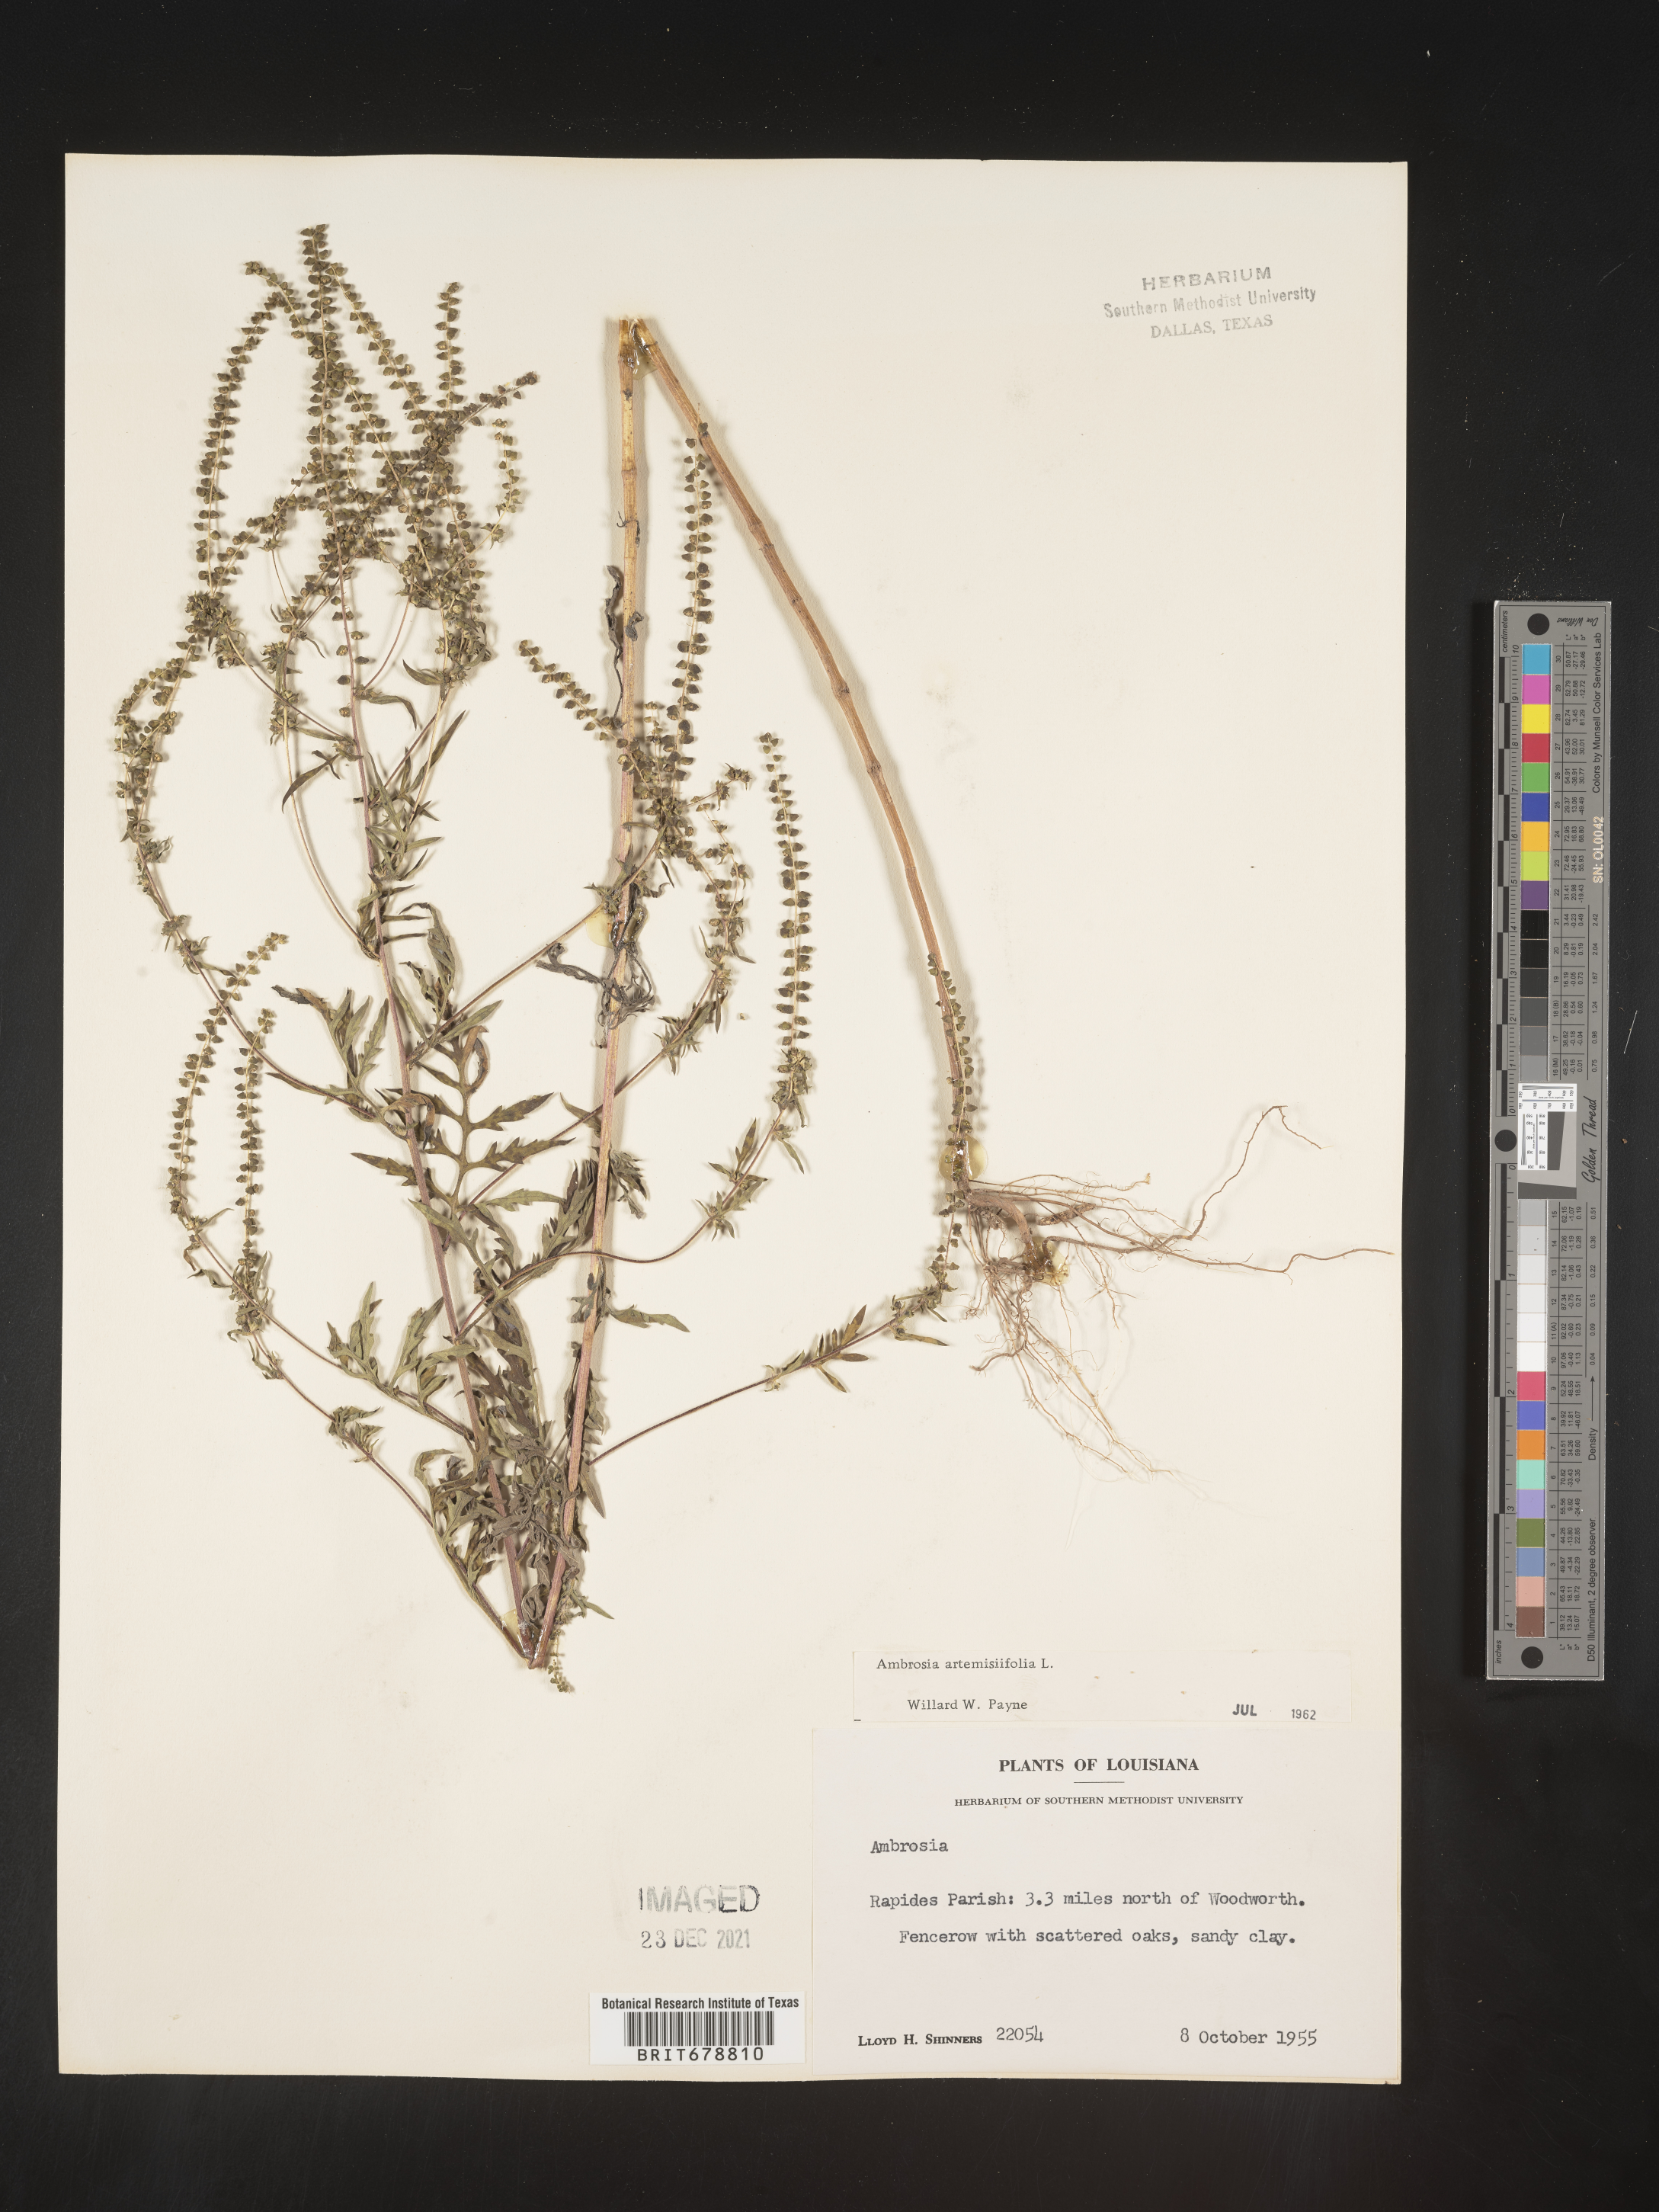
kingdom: Plantae
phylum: Tracheophyta
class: Magnoliopsida
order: Asterales
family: Asteraceae
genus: Ambrosia
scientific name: Ambrosia artemisiifolia
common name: Annual ragweed
